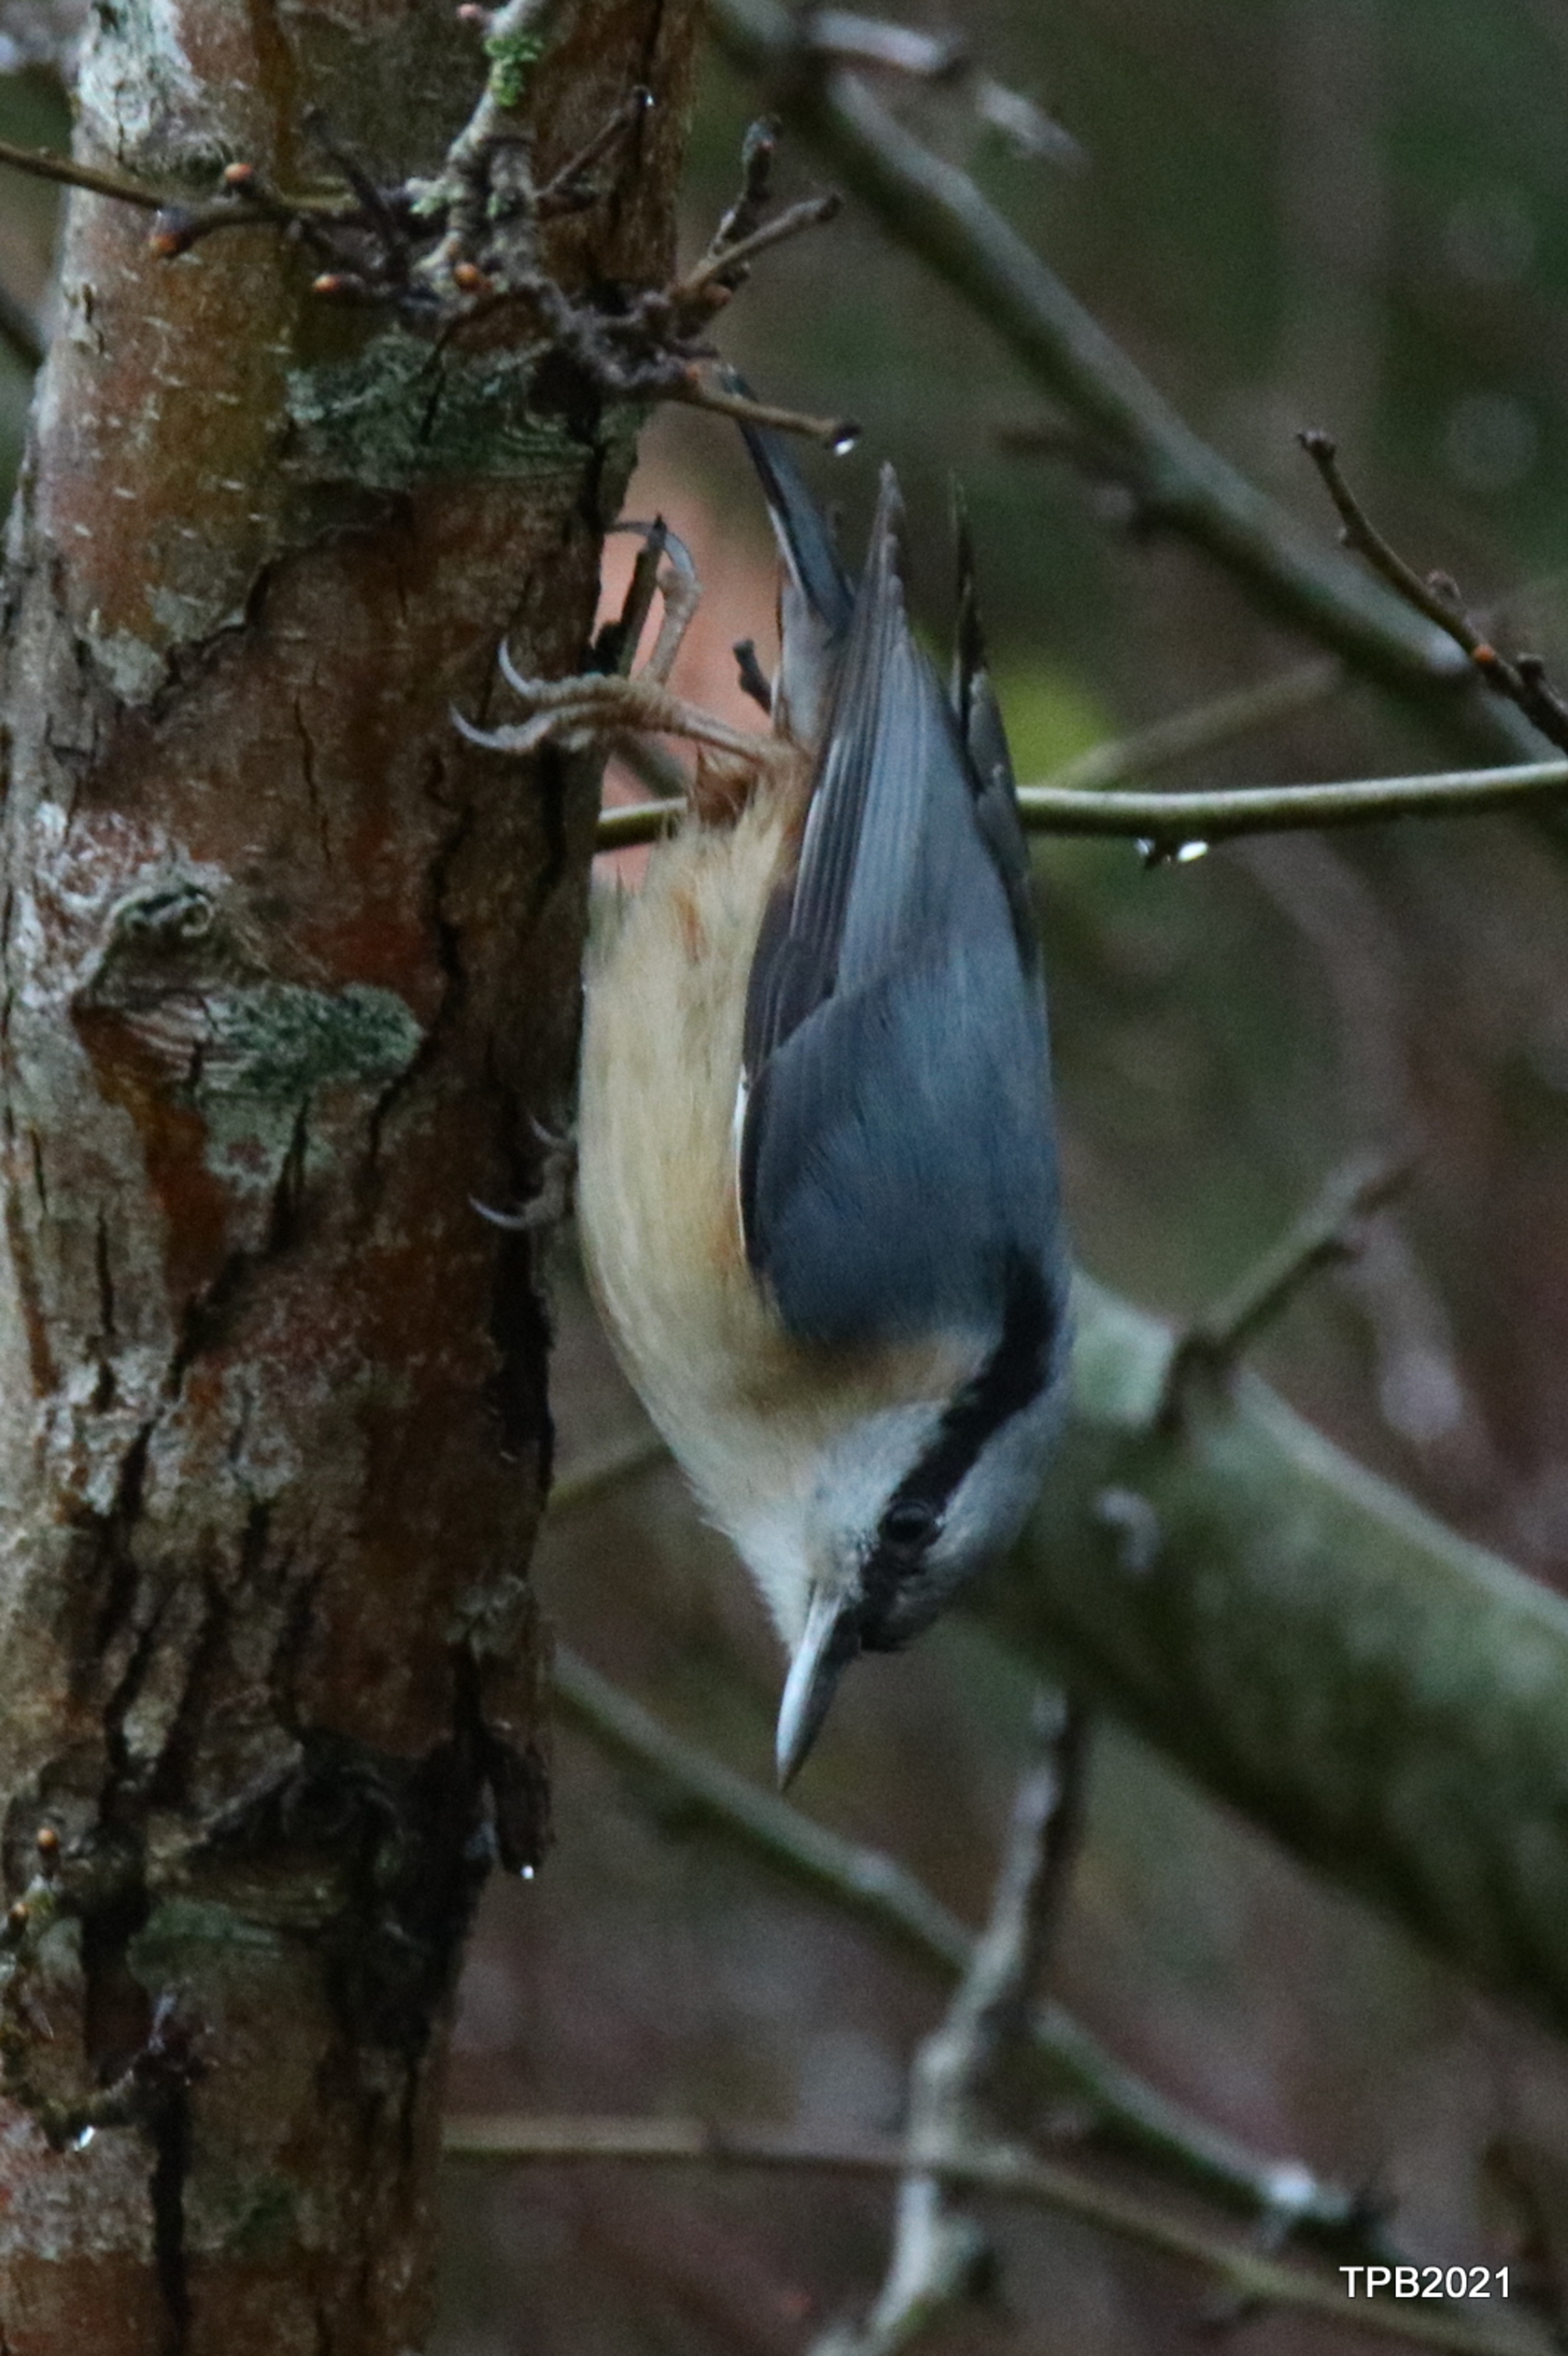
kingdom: Animalia
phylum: Chordata
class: Aves
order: Passeriformes
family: Sittidae
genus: Sitta
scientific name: Sitta europaea
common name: Spætmejse
